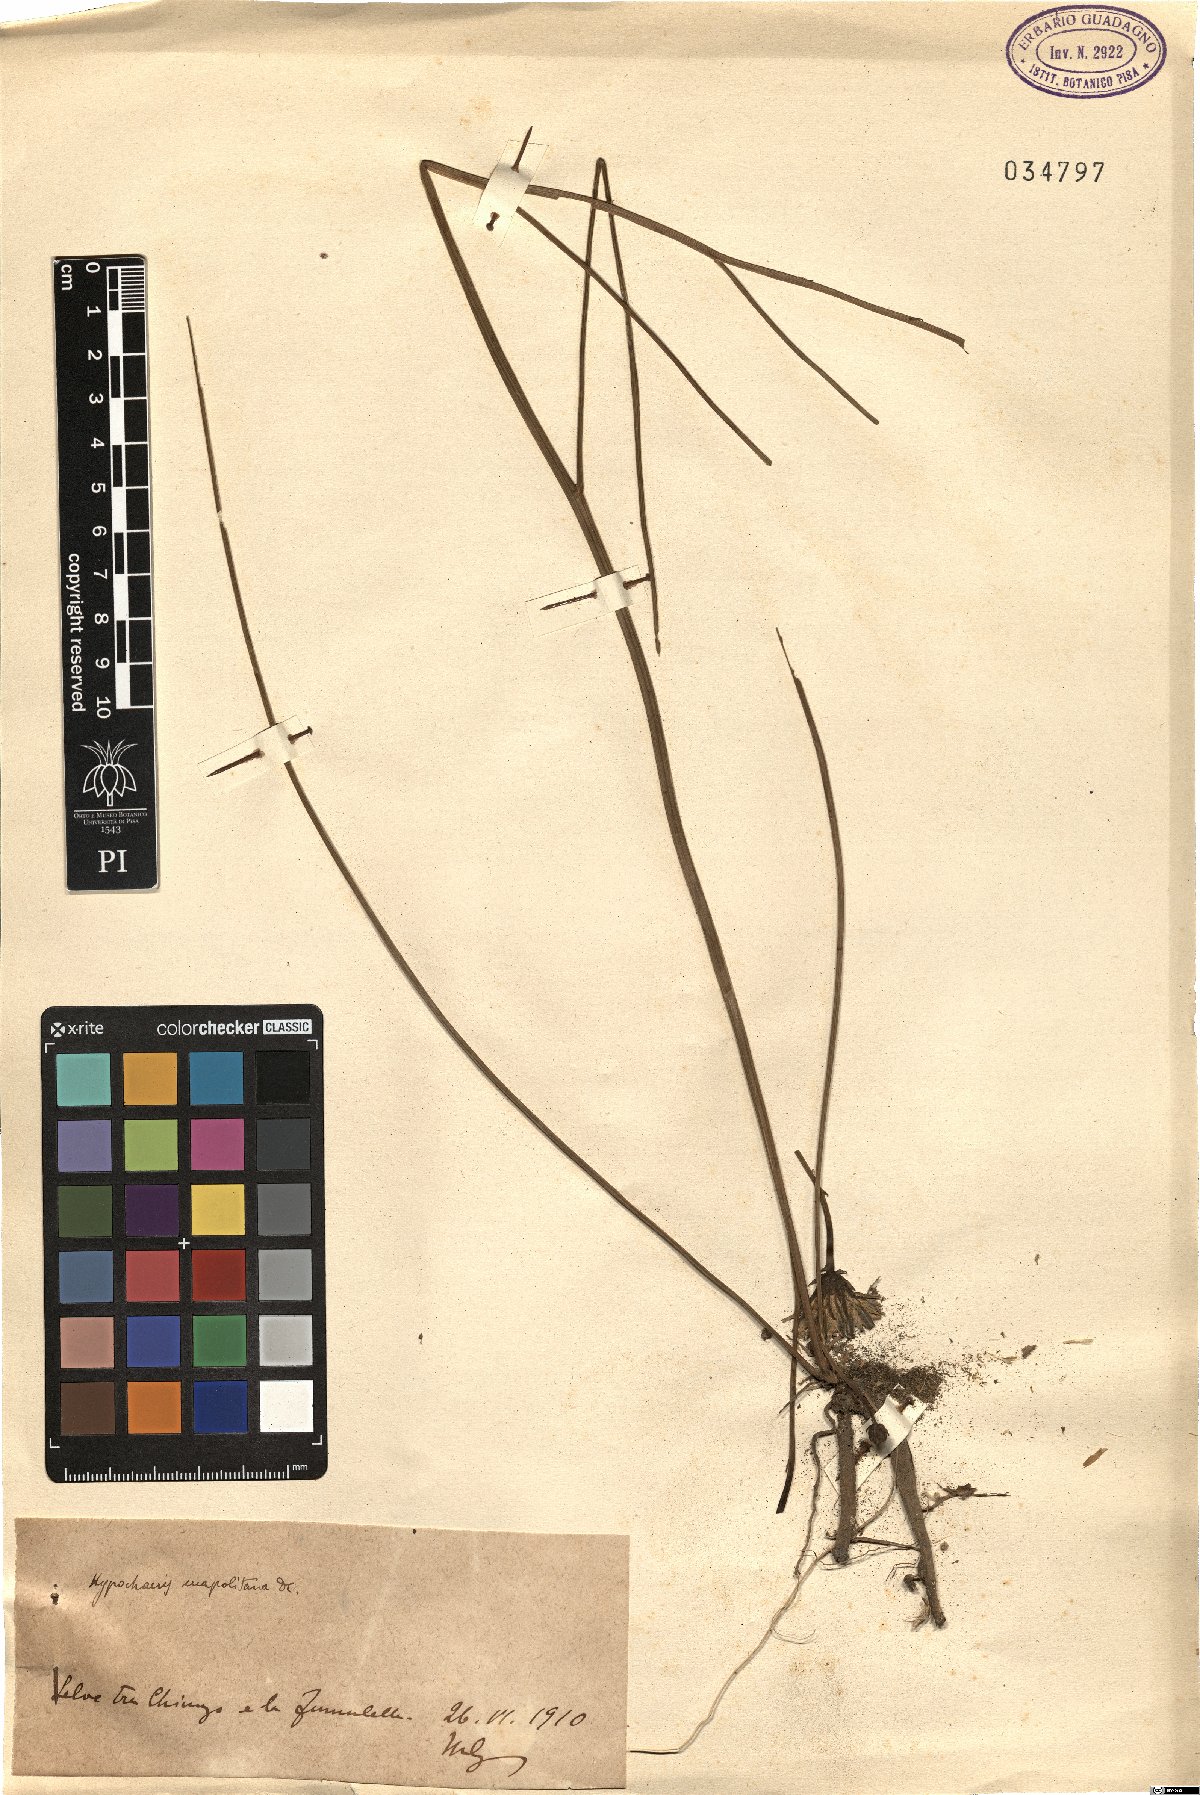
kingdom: Plantae
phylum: Tracheophyta
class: Magnoliopsida
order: Asterales
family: Asteraceae
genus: Hypochaeris
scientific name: Hypochaeris radicata
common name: Flatweed
